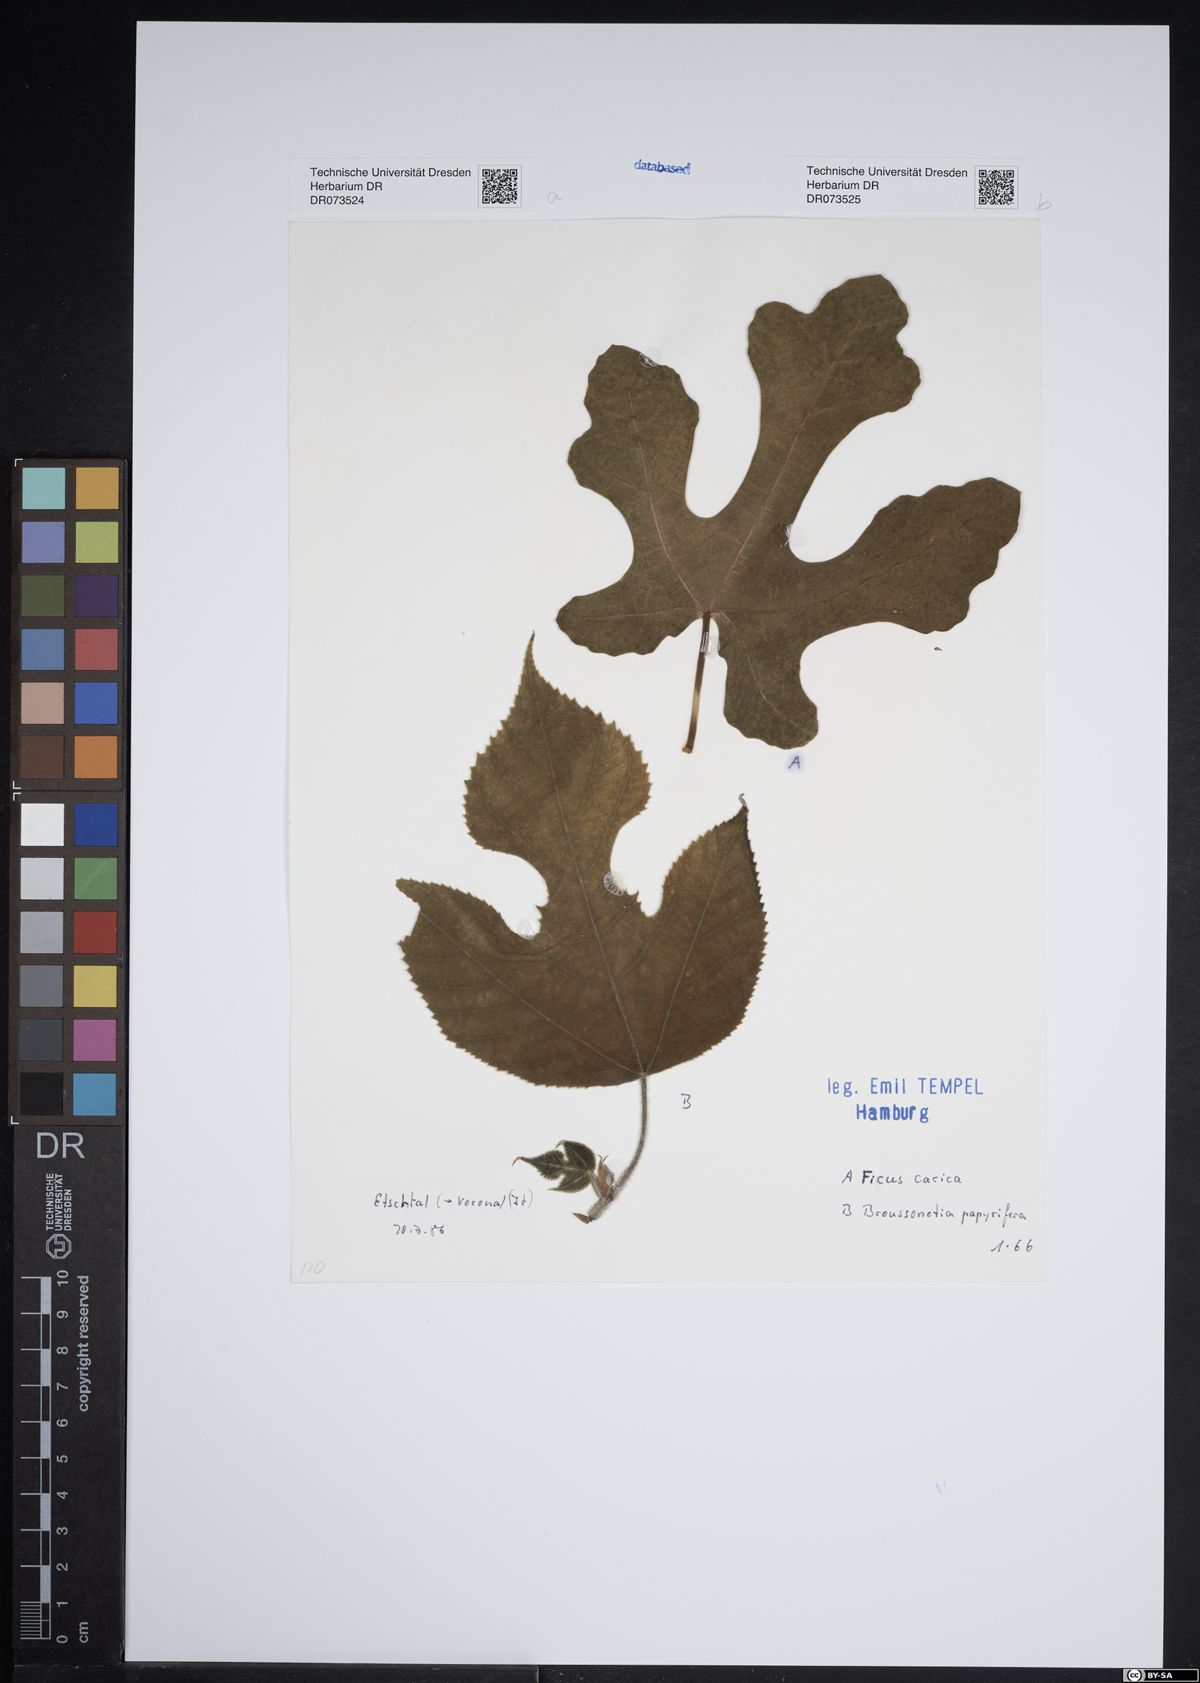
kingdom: Plantae
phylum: Tracheophyta
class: Magnoliopsida
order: Rosales
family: Moraceae
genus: Ficus
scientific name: Ficus carica
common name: Fig
